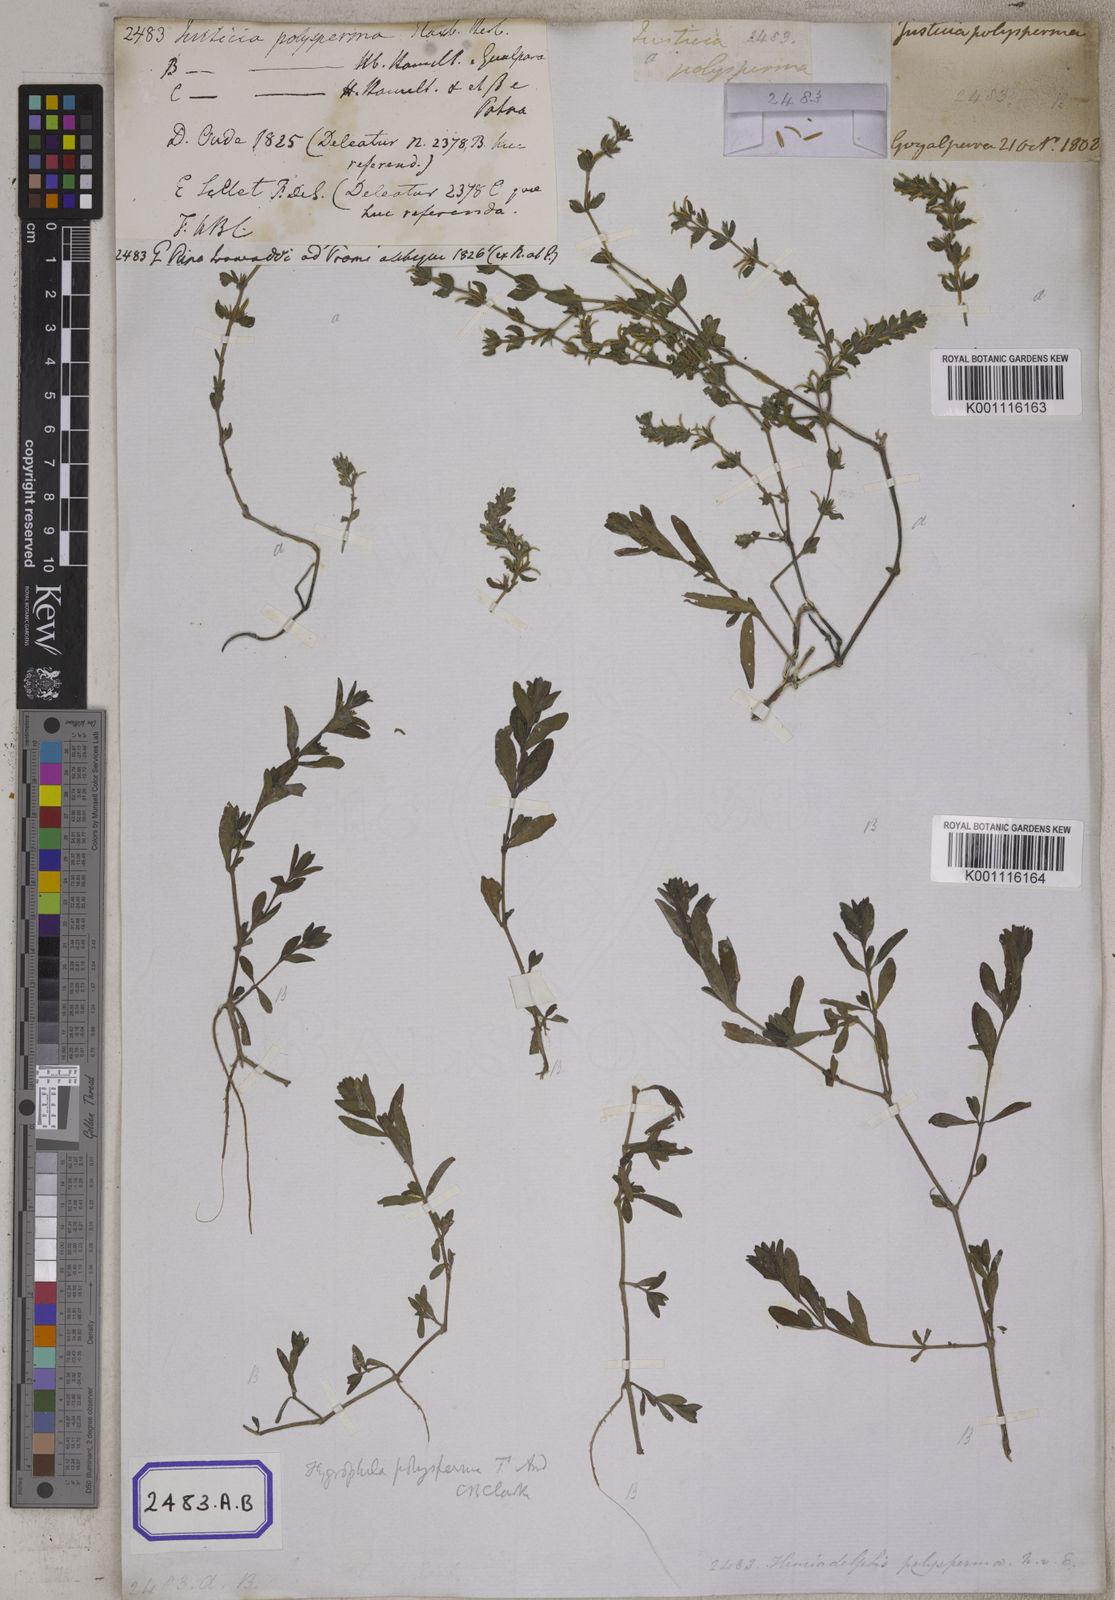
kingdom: Plantae
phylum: Tracheophyta
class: Magnoliopsida
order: Lamiales
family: Acanthaceae
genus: Hygrophila
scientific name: Hygrophila polysperma
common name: Indian swampweed
